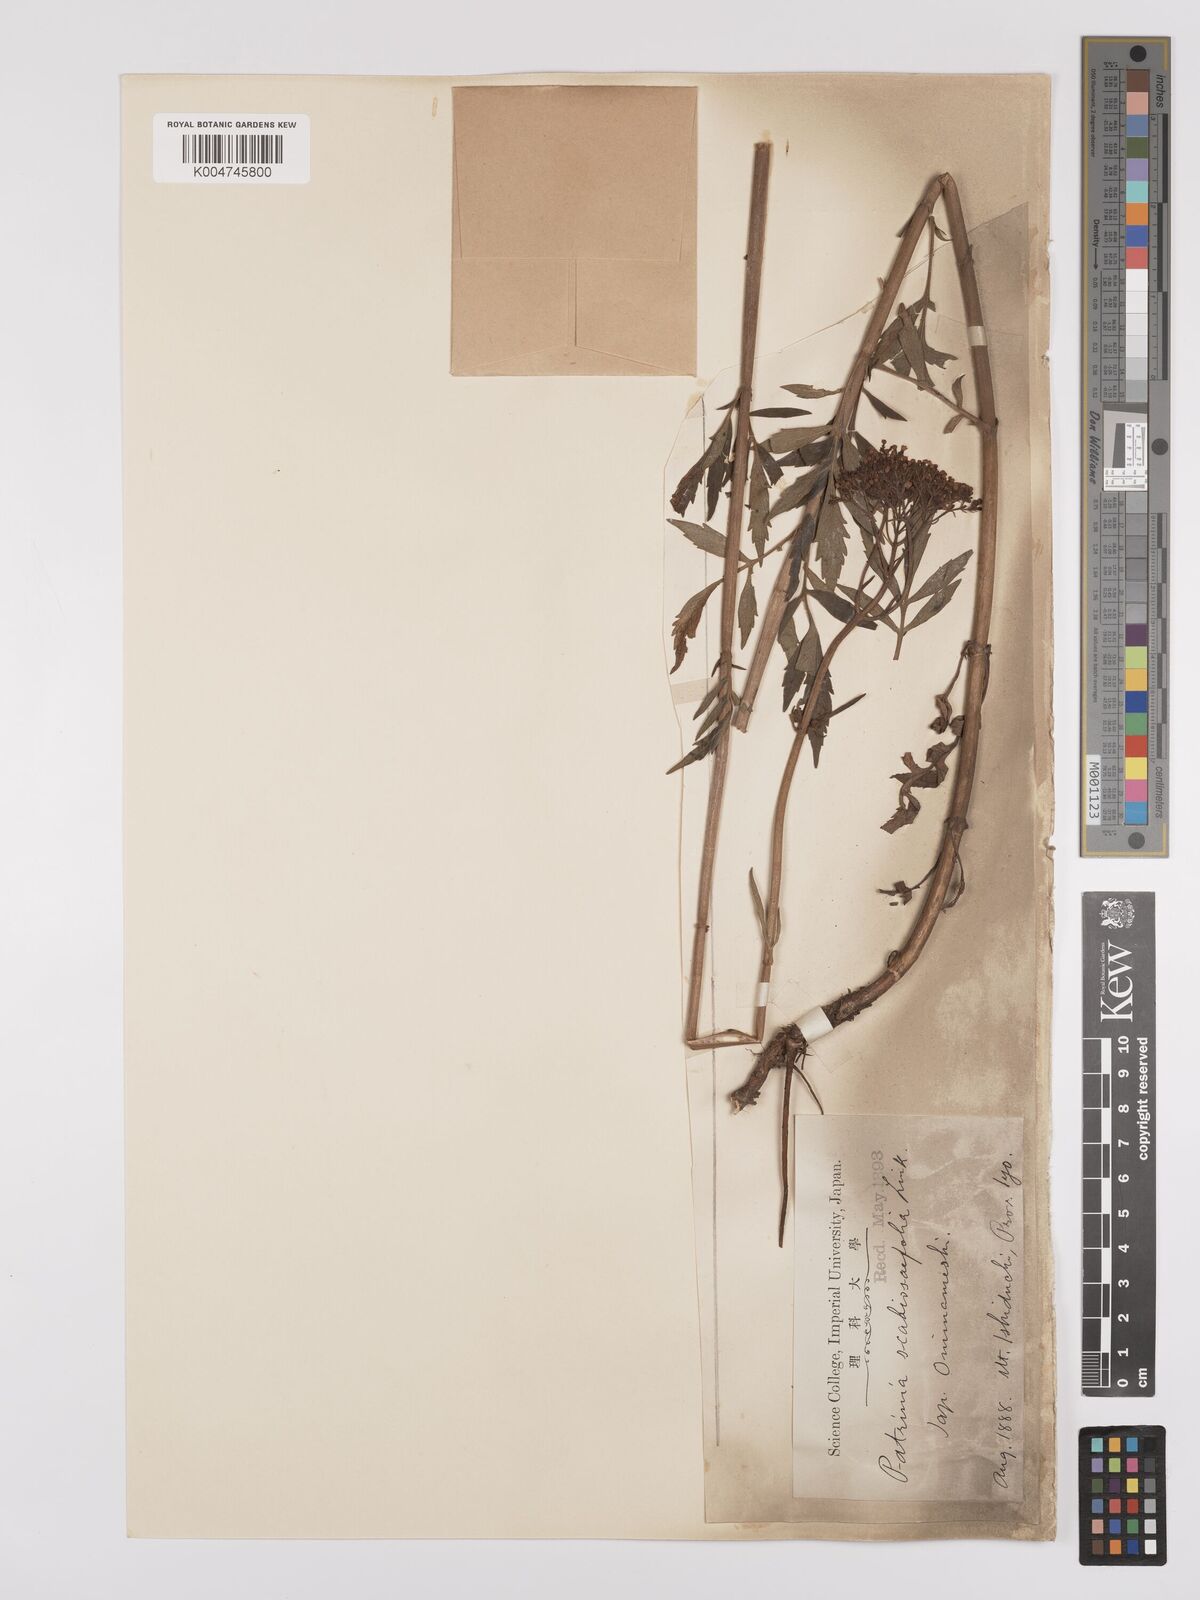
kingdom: Plantae
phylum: Tracheophyta
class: Magnoliopsida
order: Dipsacales
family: Caprifoliaceae
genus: Patrinia
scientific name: Patrinia scabiosifolia
